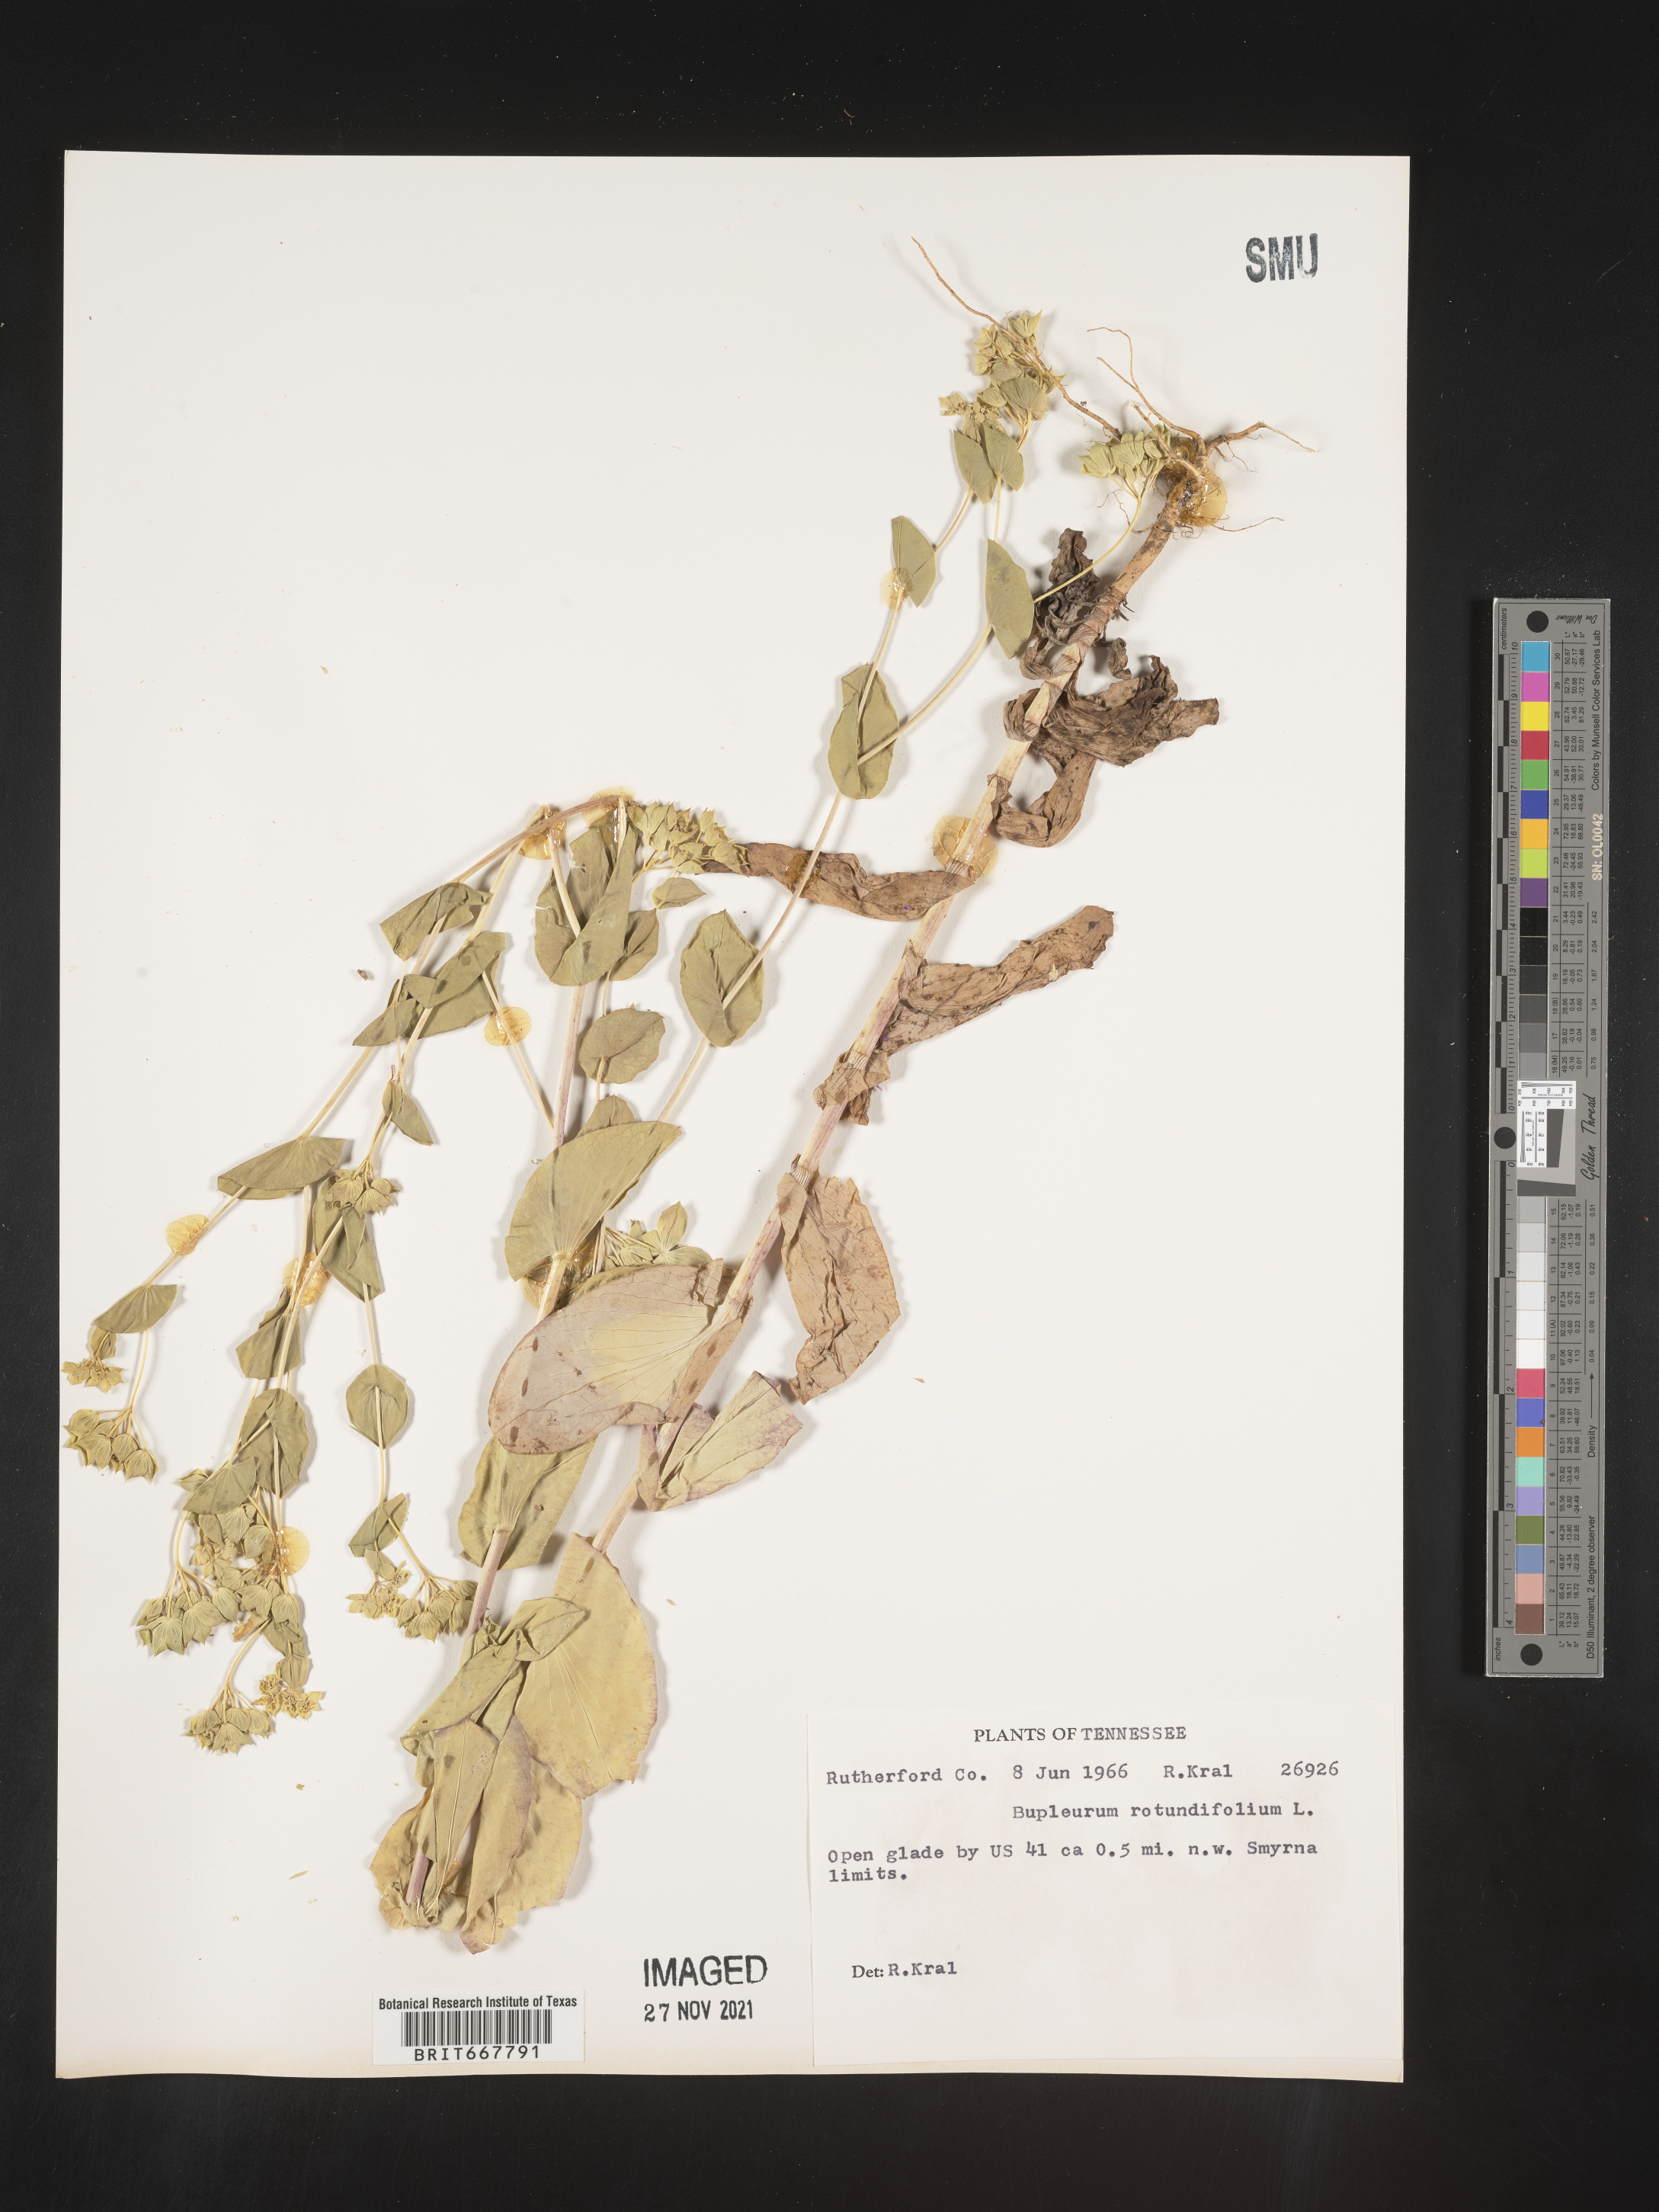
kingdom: Plantae
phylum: Tracheophyta
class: Magnoliopsida
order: Apiales
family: Apiaceae
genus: Bupleurum
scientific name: Bupleurum
